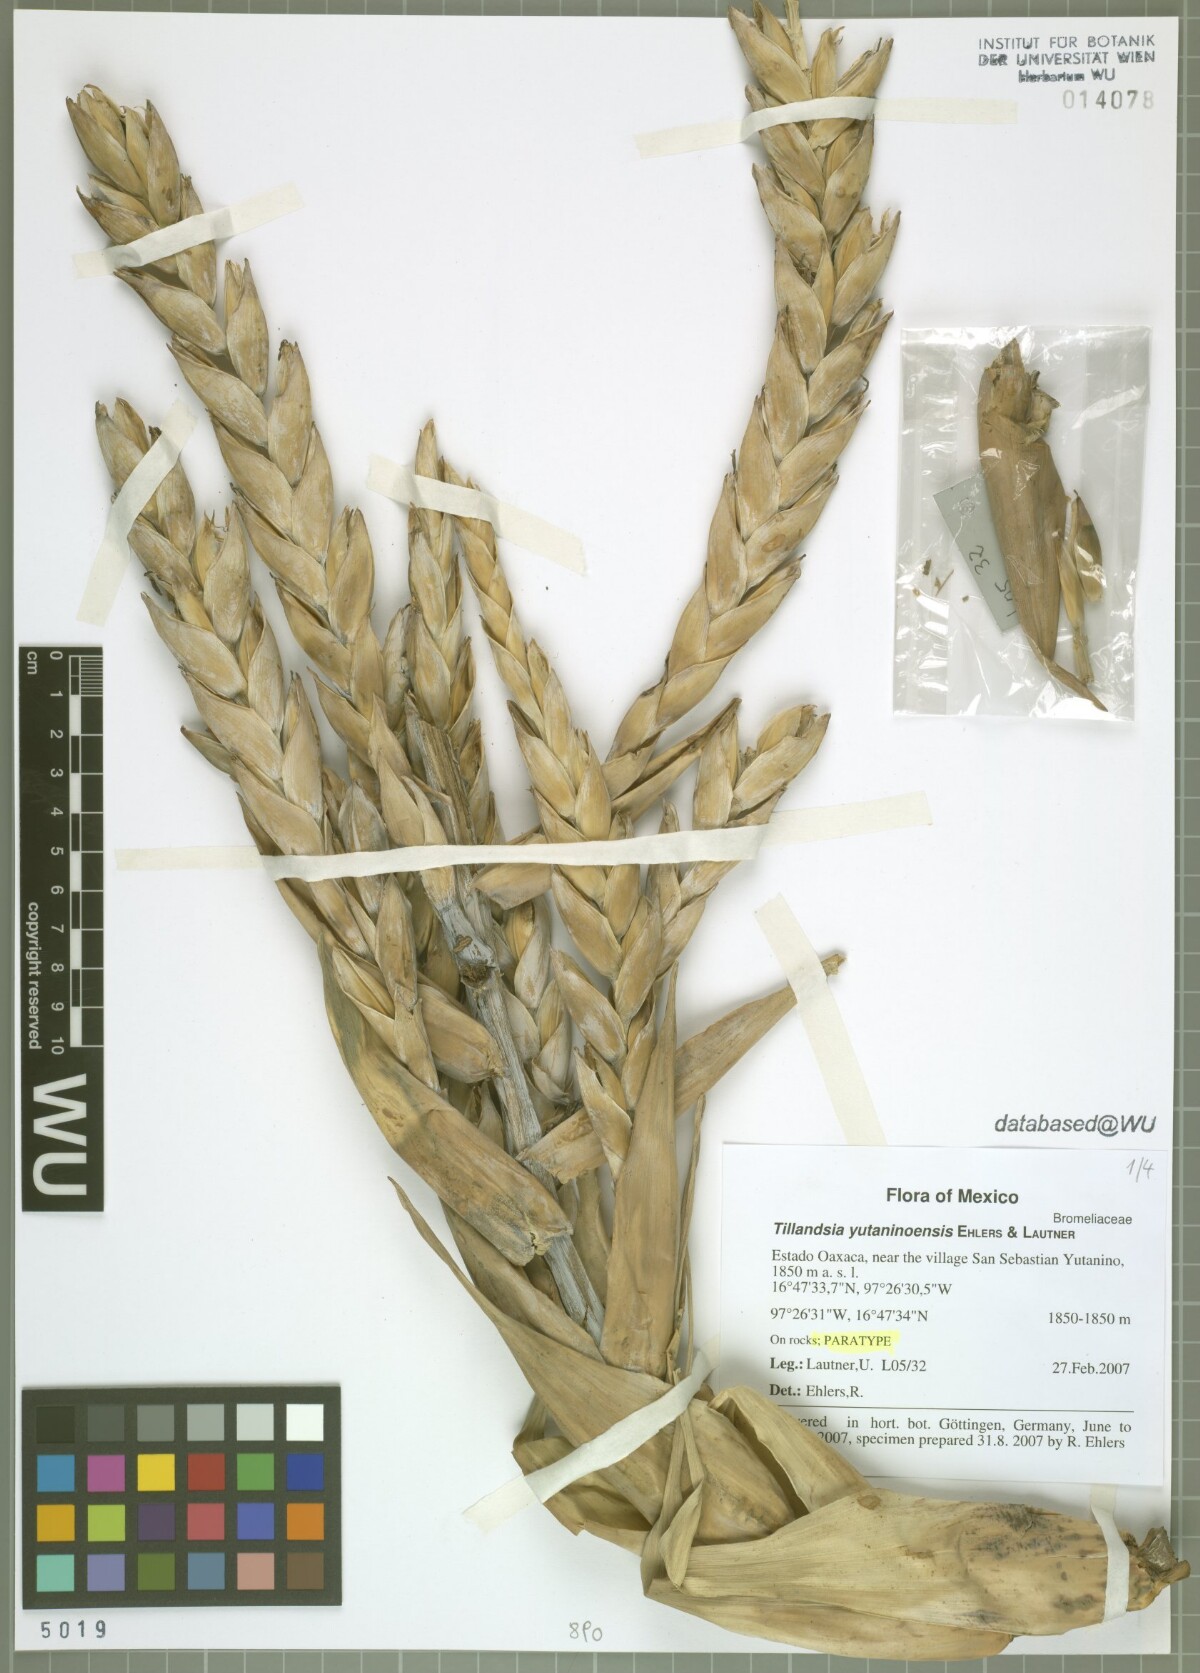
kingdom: Plantae
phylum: Tracheophyta
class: Liliopsida
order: Poales
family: Bromeliaceae
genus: Tillandsia
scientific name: Tillandsia yutaninoensis
